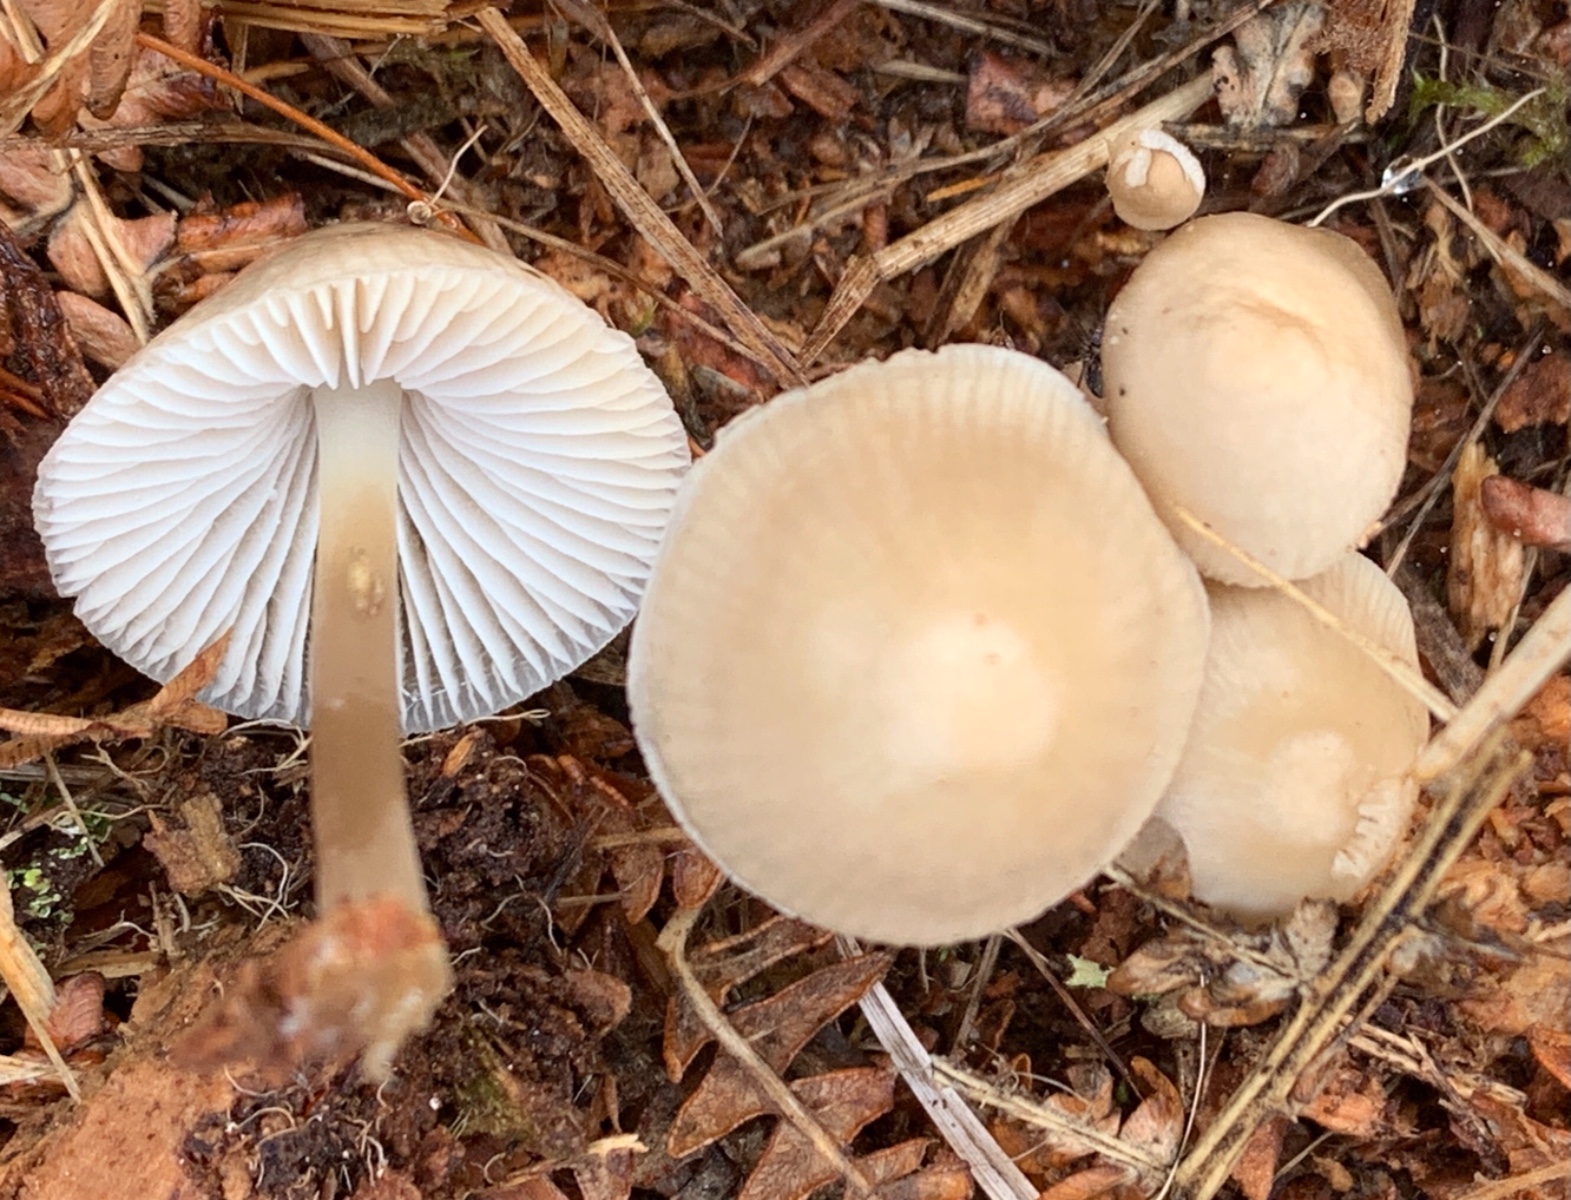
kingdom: Fungi
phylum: Basidiomycota
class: Agaricomycetes
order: Agaricales
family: Mycenaceae
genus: Mycena
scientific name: Mycena galericulata
